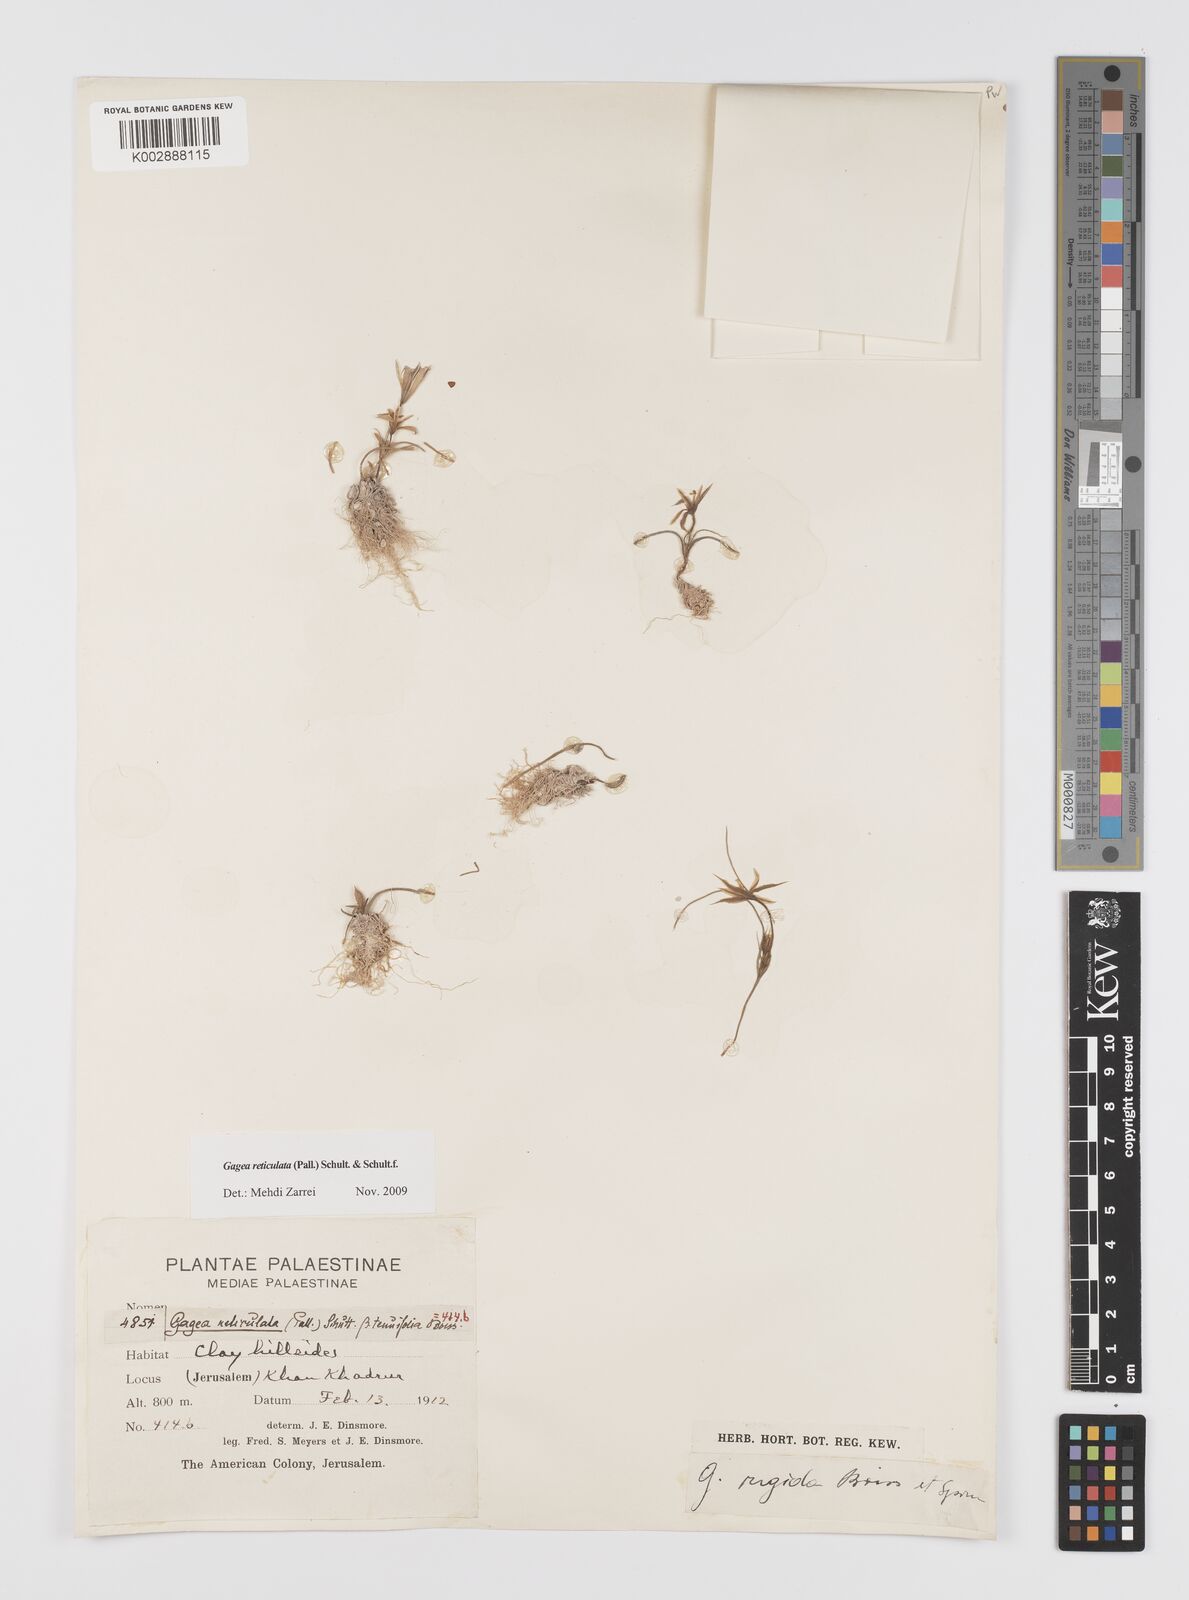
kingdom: Plantae
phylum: Tracheophyta
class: Liliopsida
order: Liliales
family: Liliaceae
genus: Gagea
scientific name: Gagea reticulata
